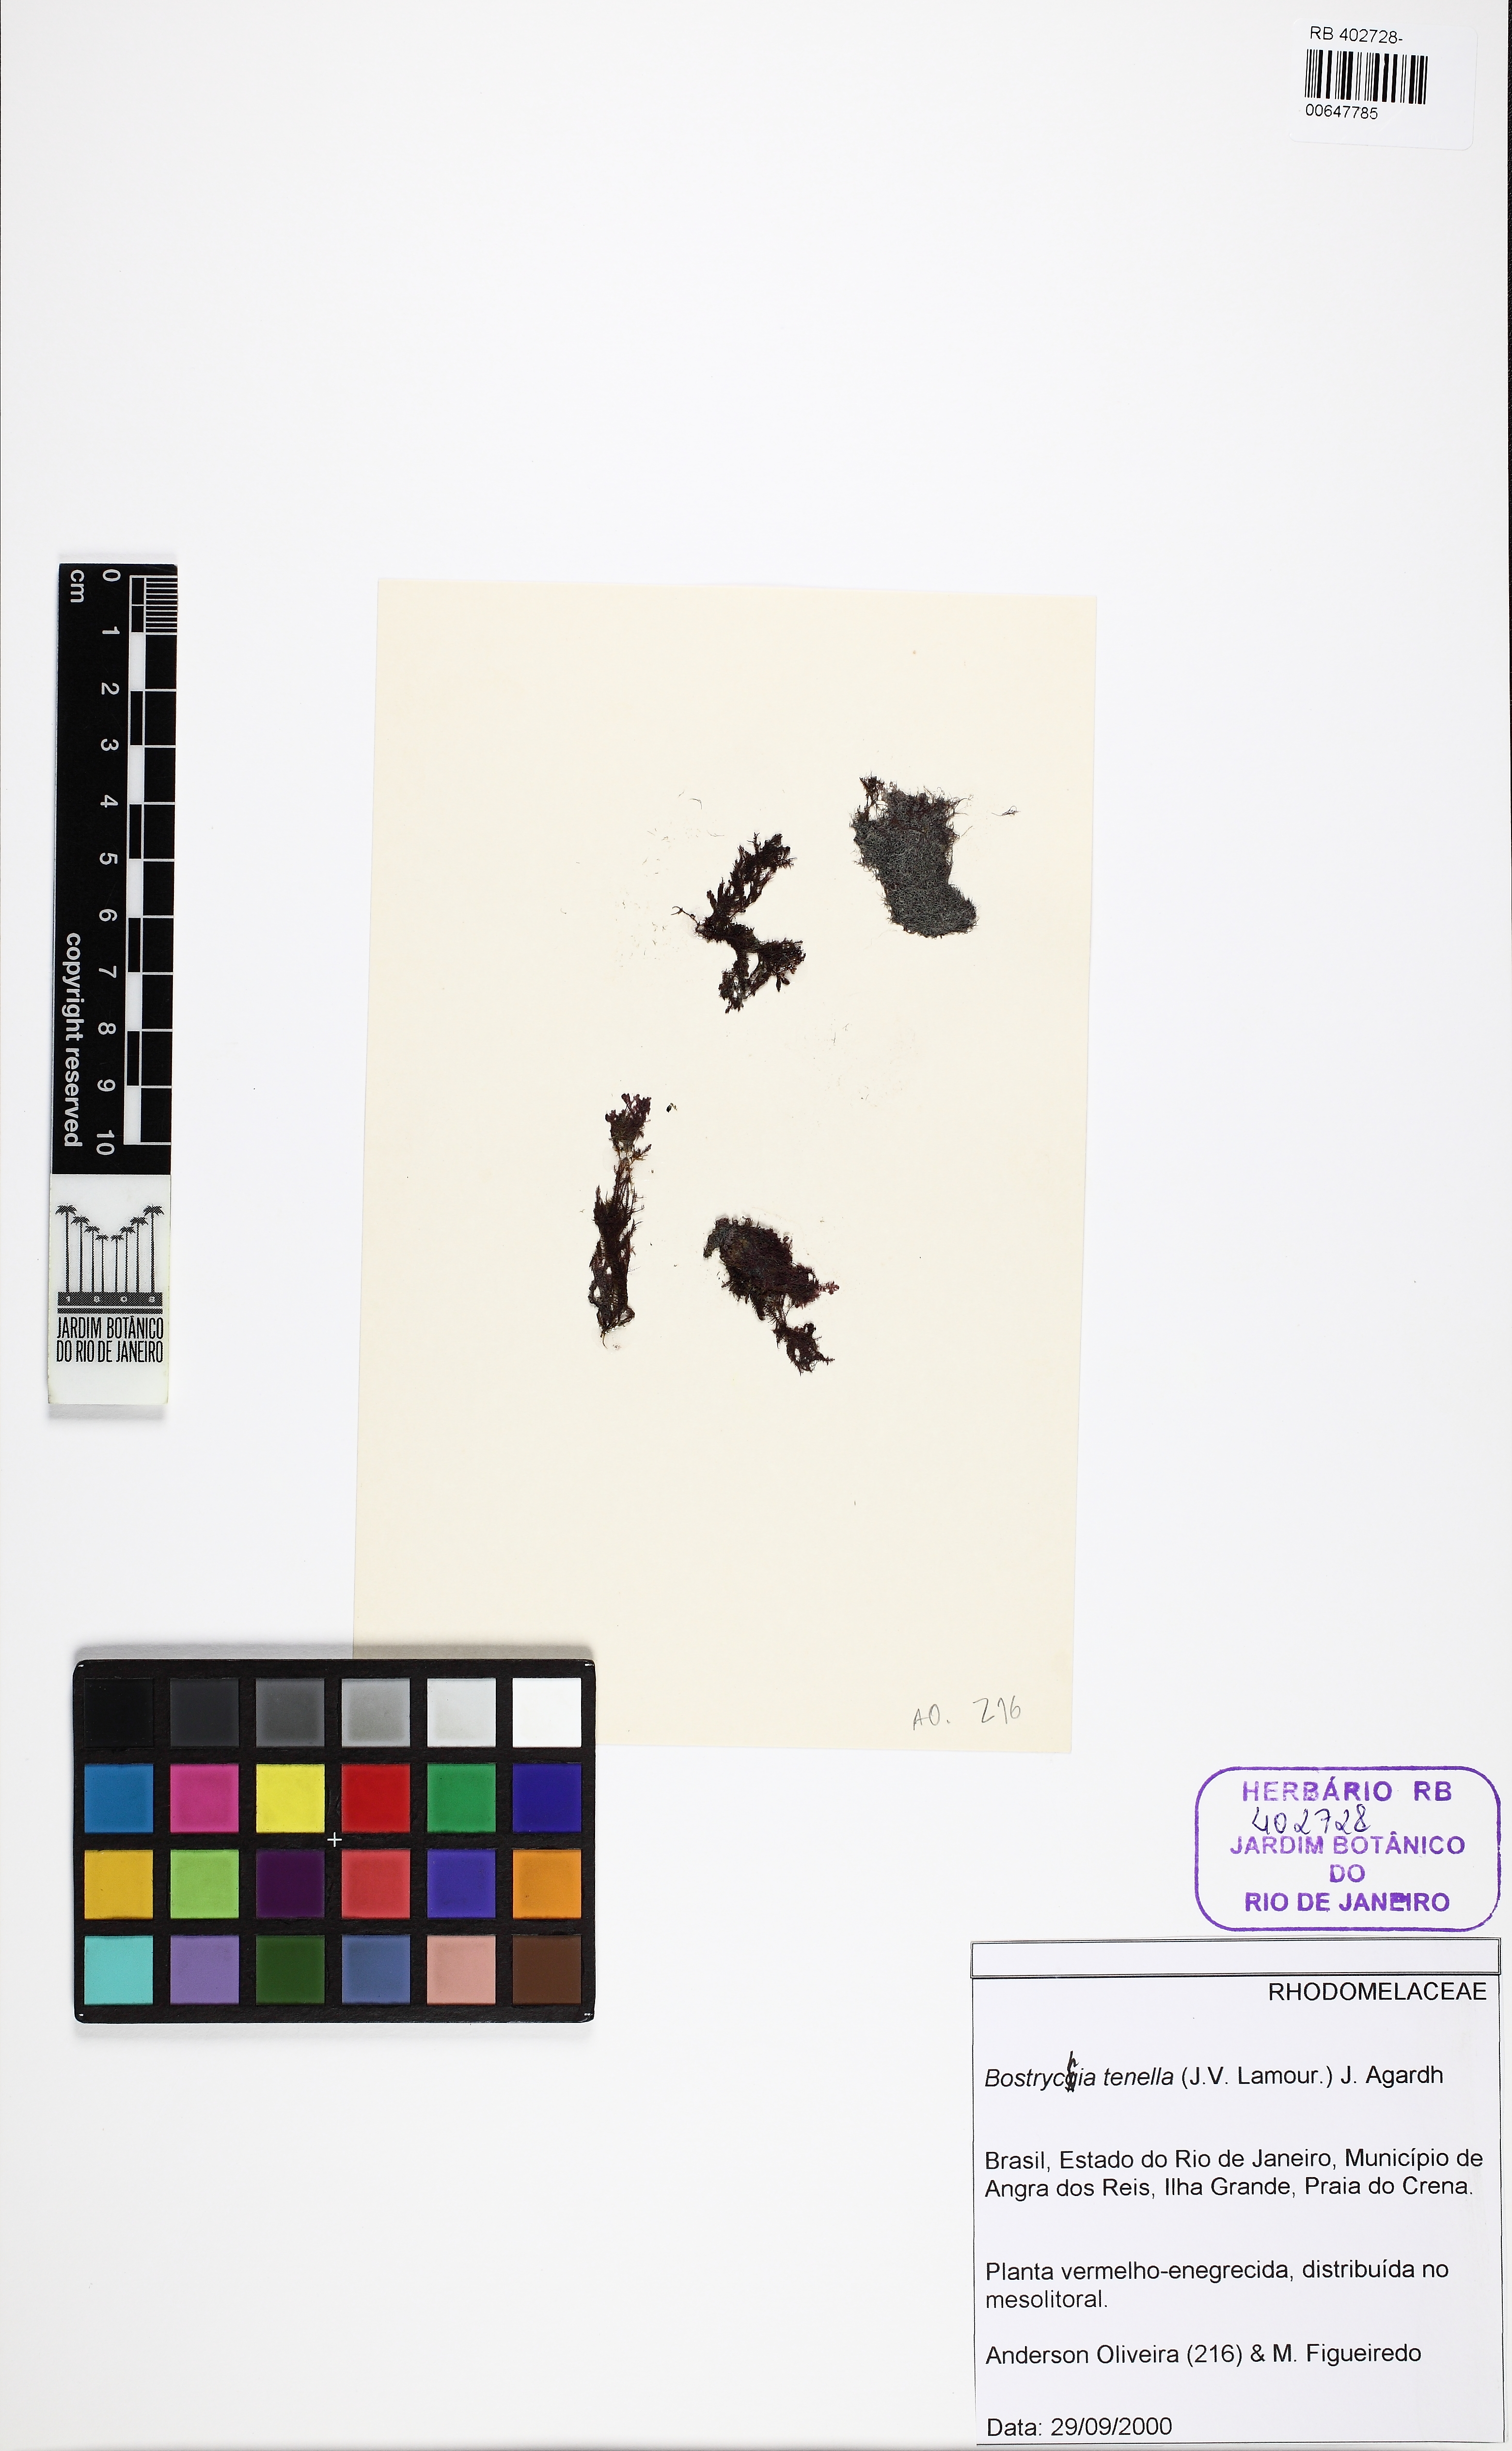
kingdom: Plantae
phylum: Rhodophyta
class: Florideophyceae
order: Ceramiales
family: Rhodomelaceae
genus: Bostrychia
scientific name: Bostrychia tenella
